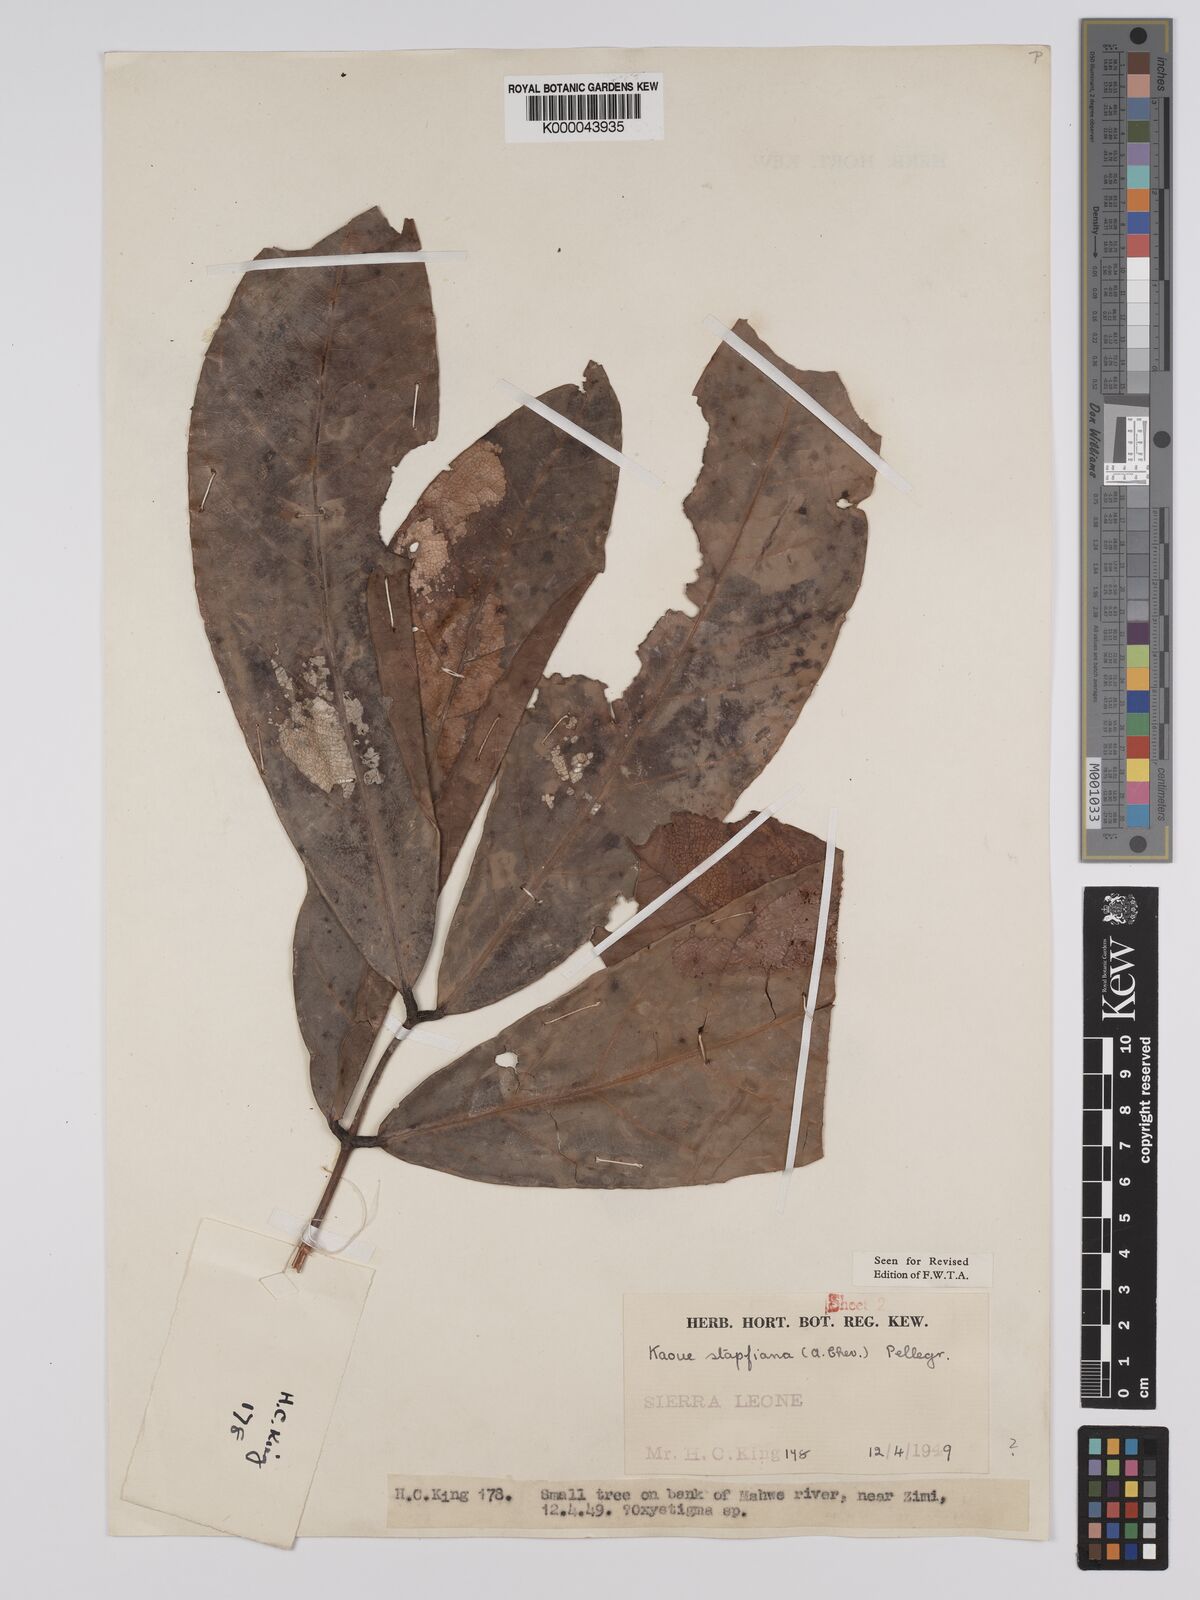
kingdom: Plantae
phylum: Tracheophyta
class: Magnoliopsida
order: Fabales
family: Fabaceae
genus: Stachyothyrsus
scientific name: Stachyothyrsus
